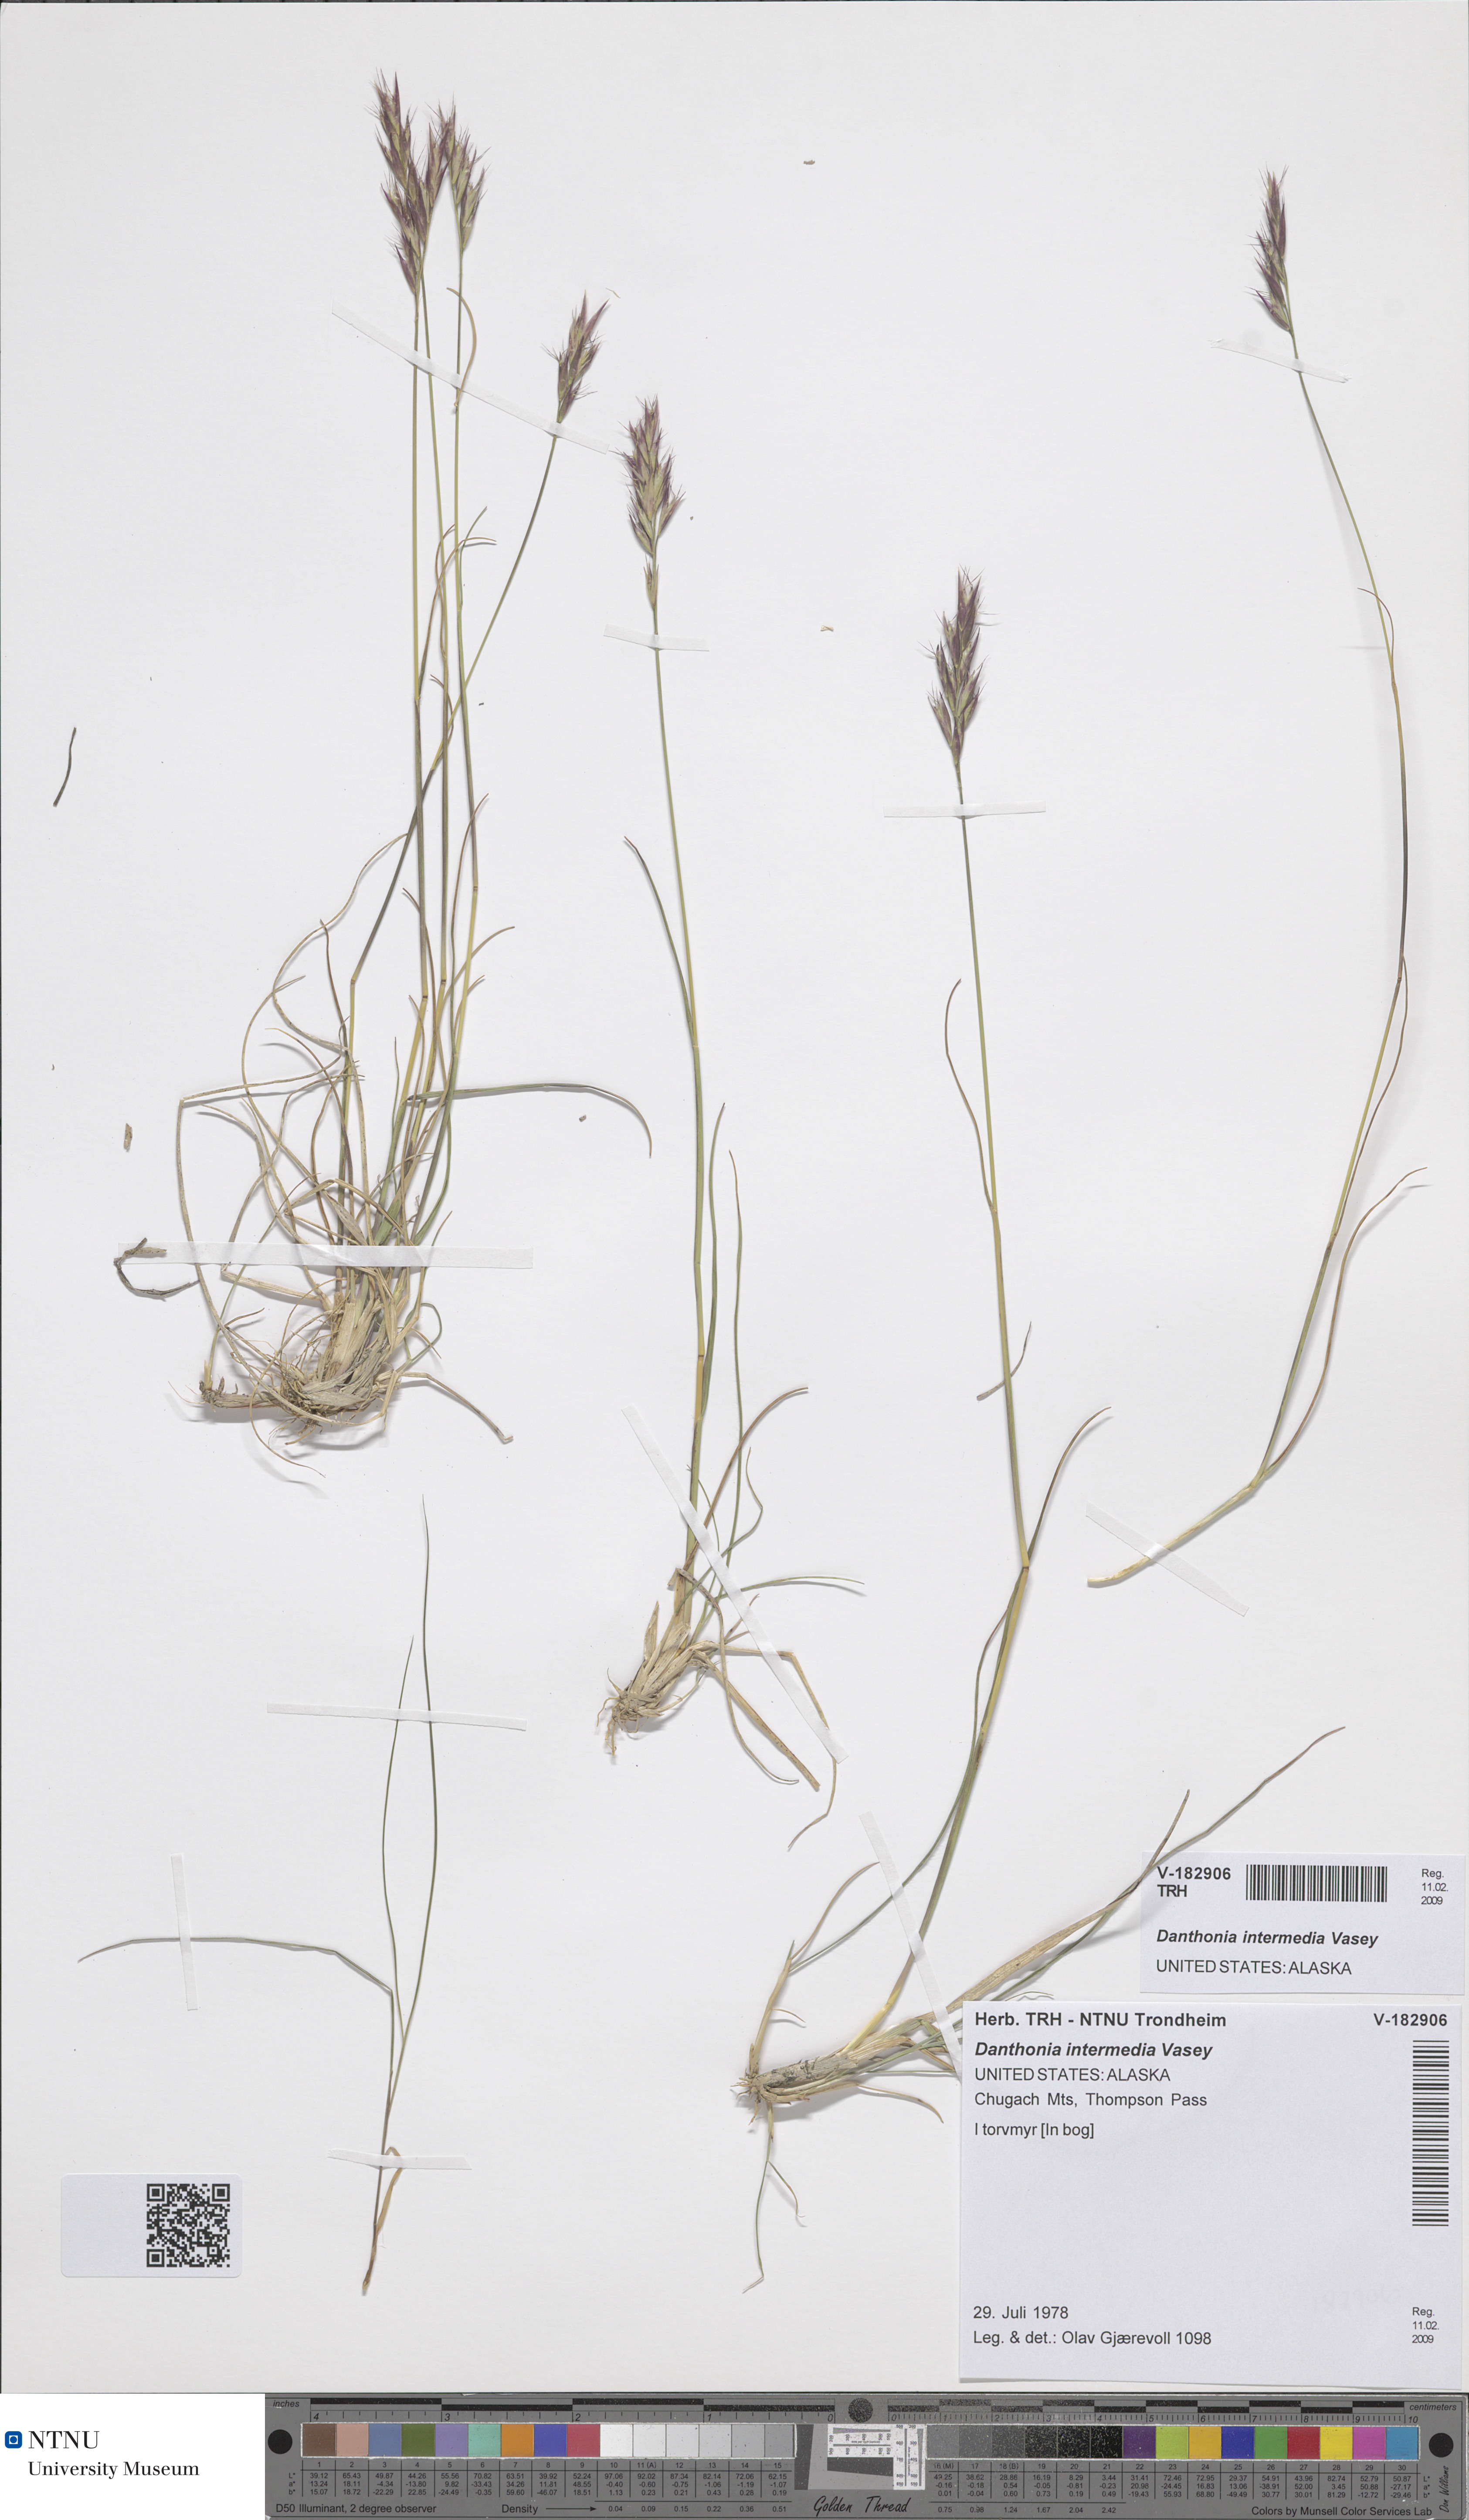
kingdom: Plantae
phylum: Tracheophyta
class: Liliopsida
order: Poales
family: Poaceae
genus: Danthonia
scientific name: Danthonia intermedia
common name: Intermediate oat grass
